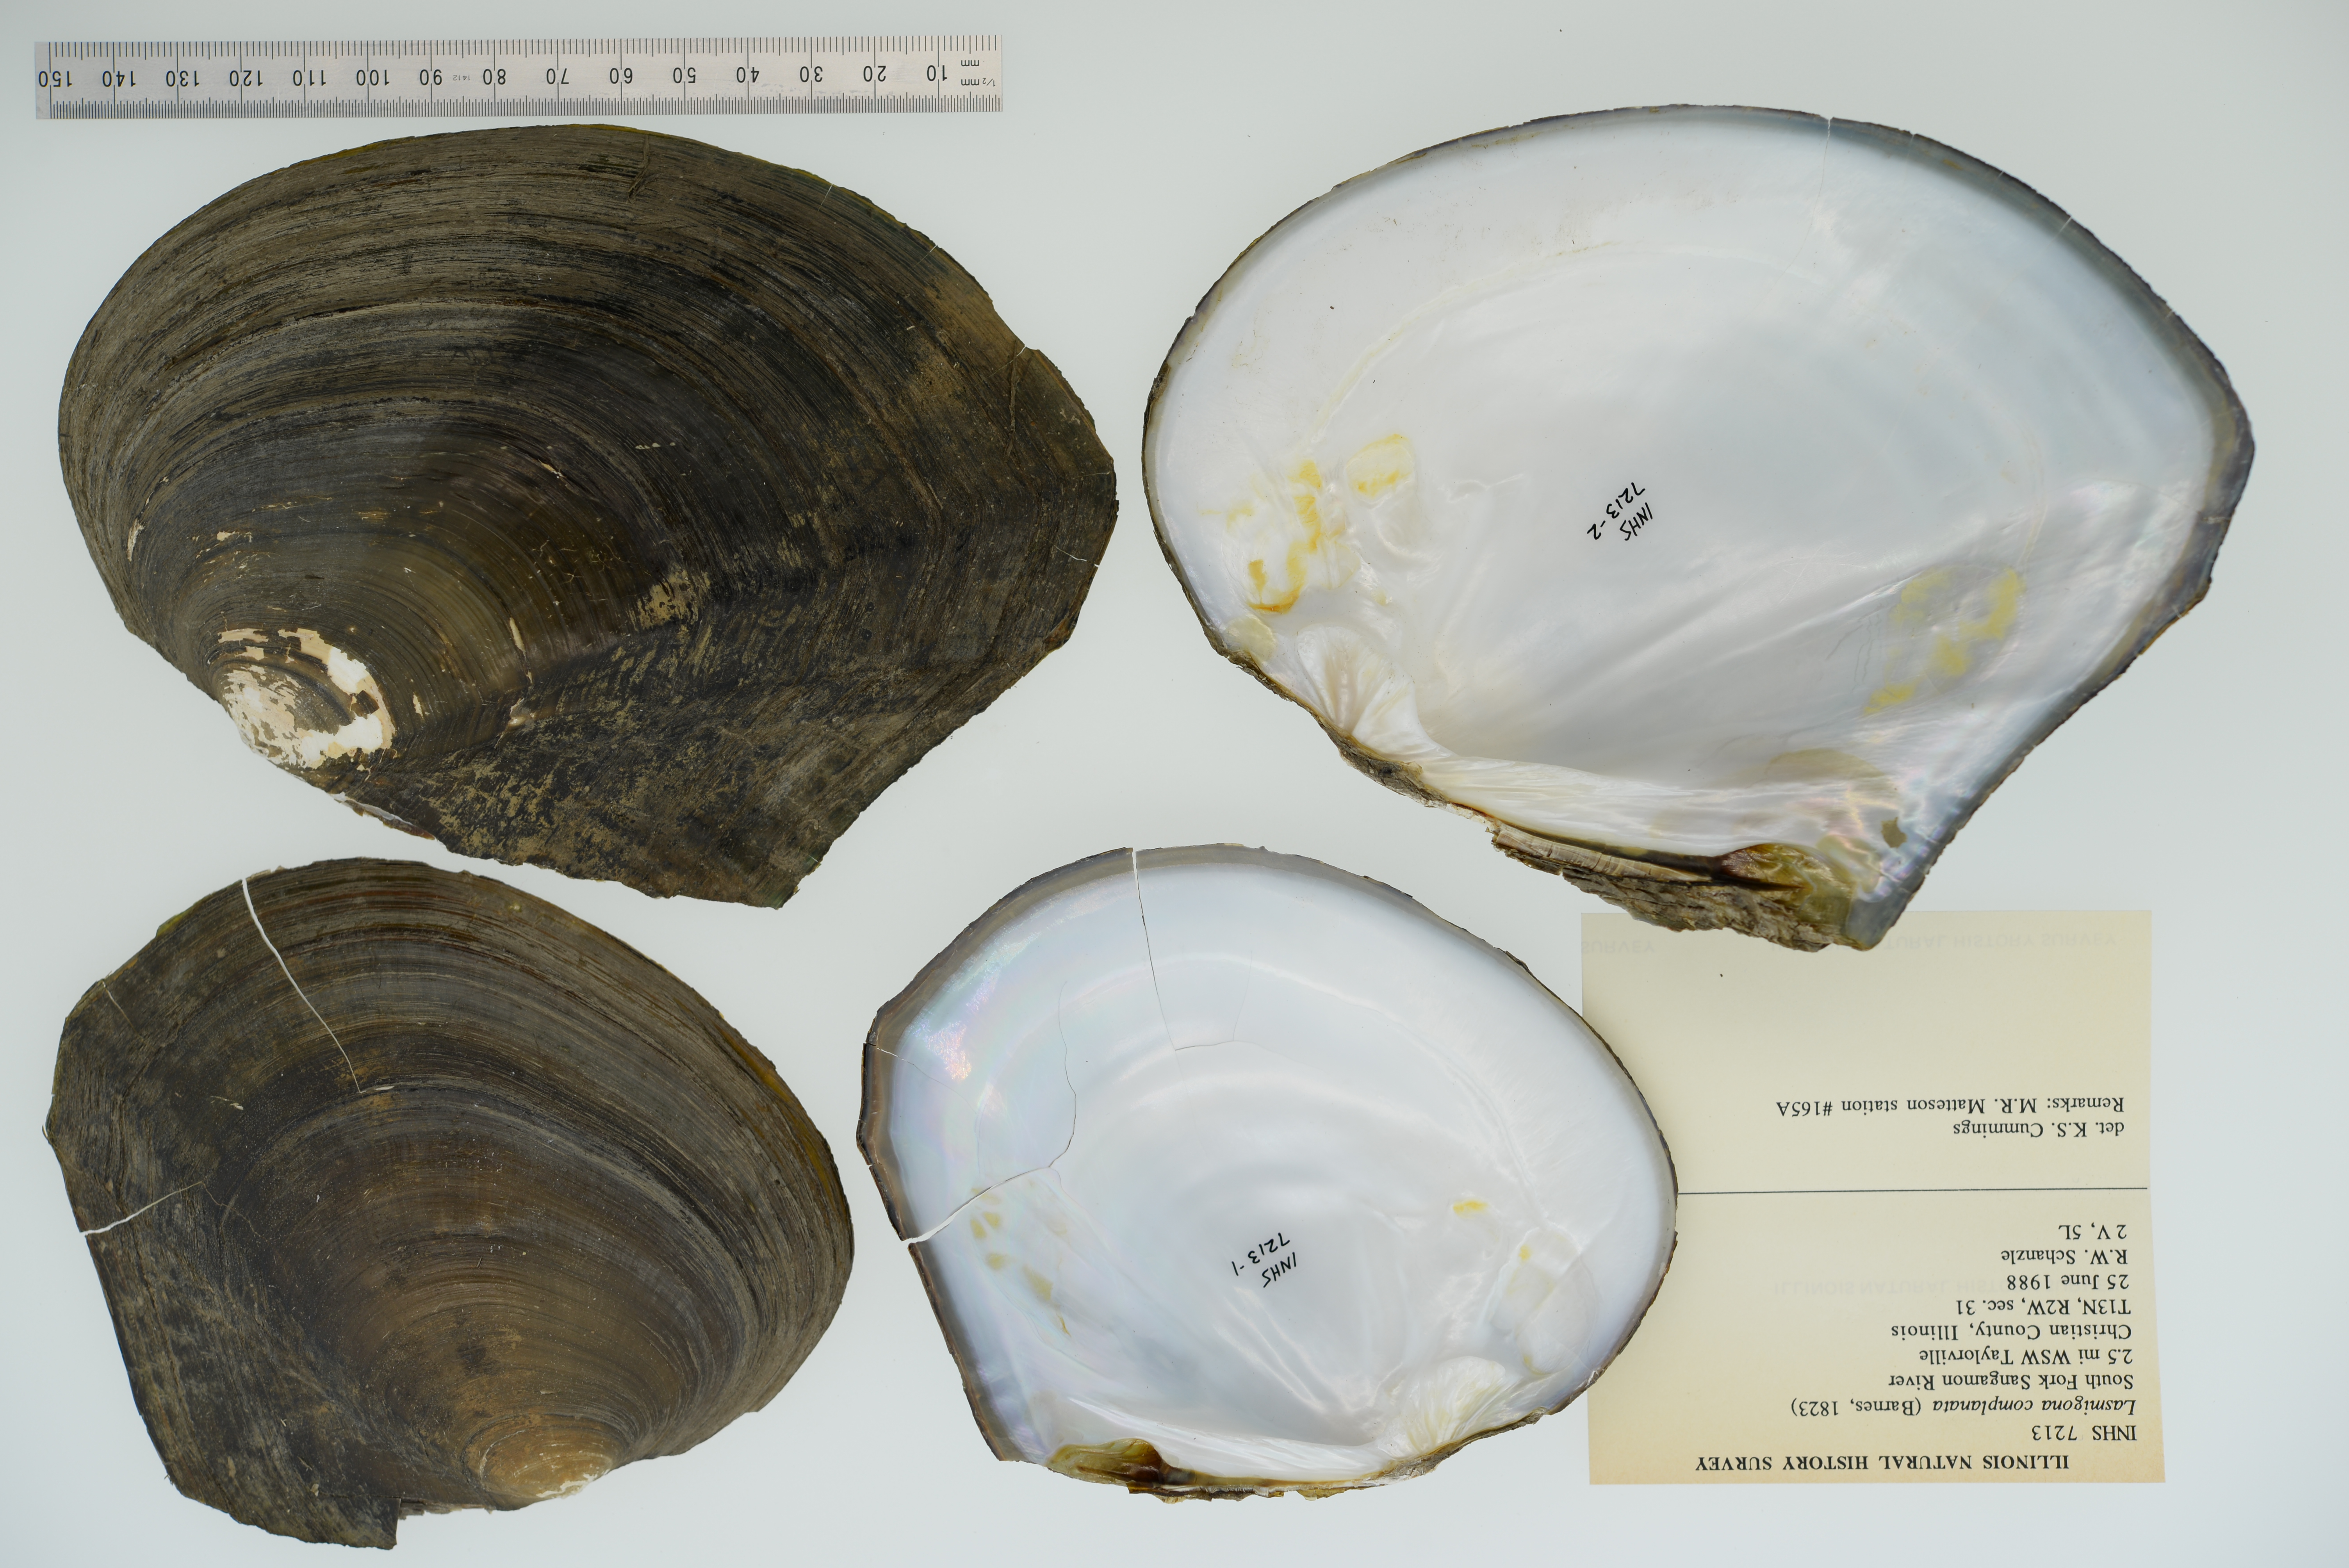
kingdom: Animalia
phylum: Mollusca
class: Bivalvia
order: Unionida
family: Unionidae
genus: Lasmigona
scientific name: Lasmigona complanata
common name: White heelsplitter
